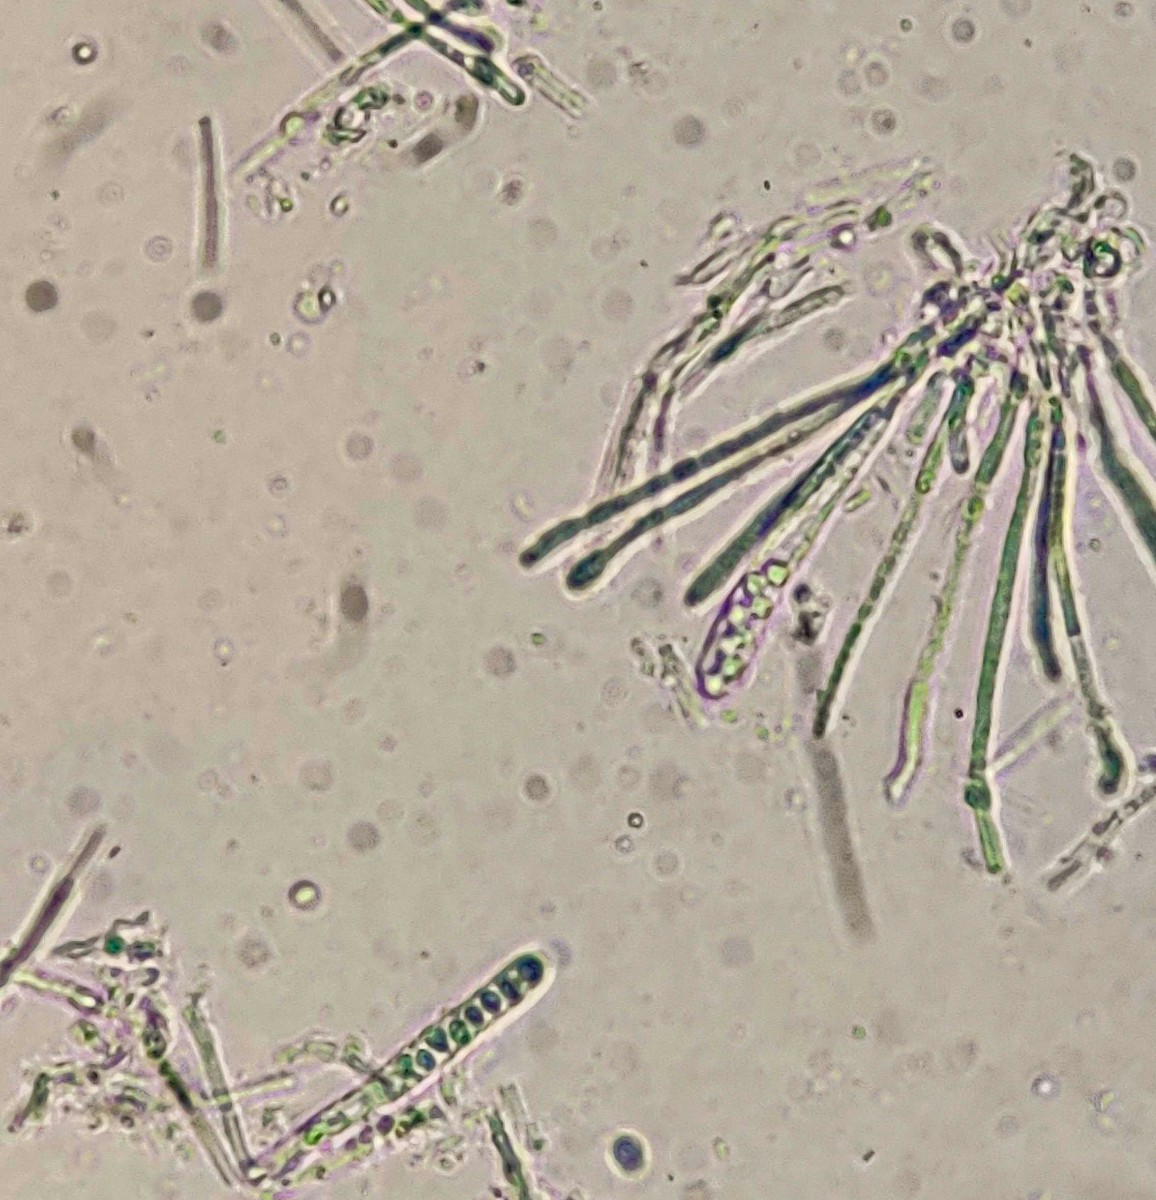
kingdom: Fungi
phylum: Ascomycota
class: Leotiomycetes
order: Helotiales
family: Lachnaceae
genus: Lachnellula
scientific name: Lachnellula calycina
